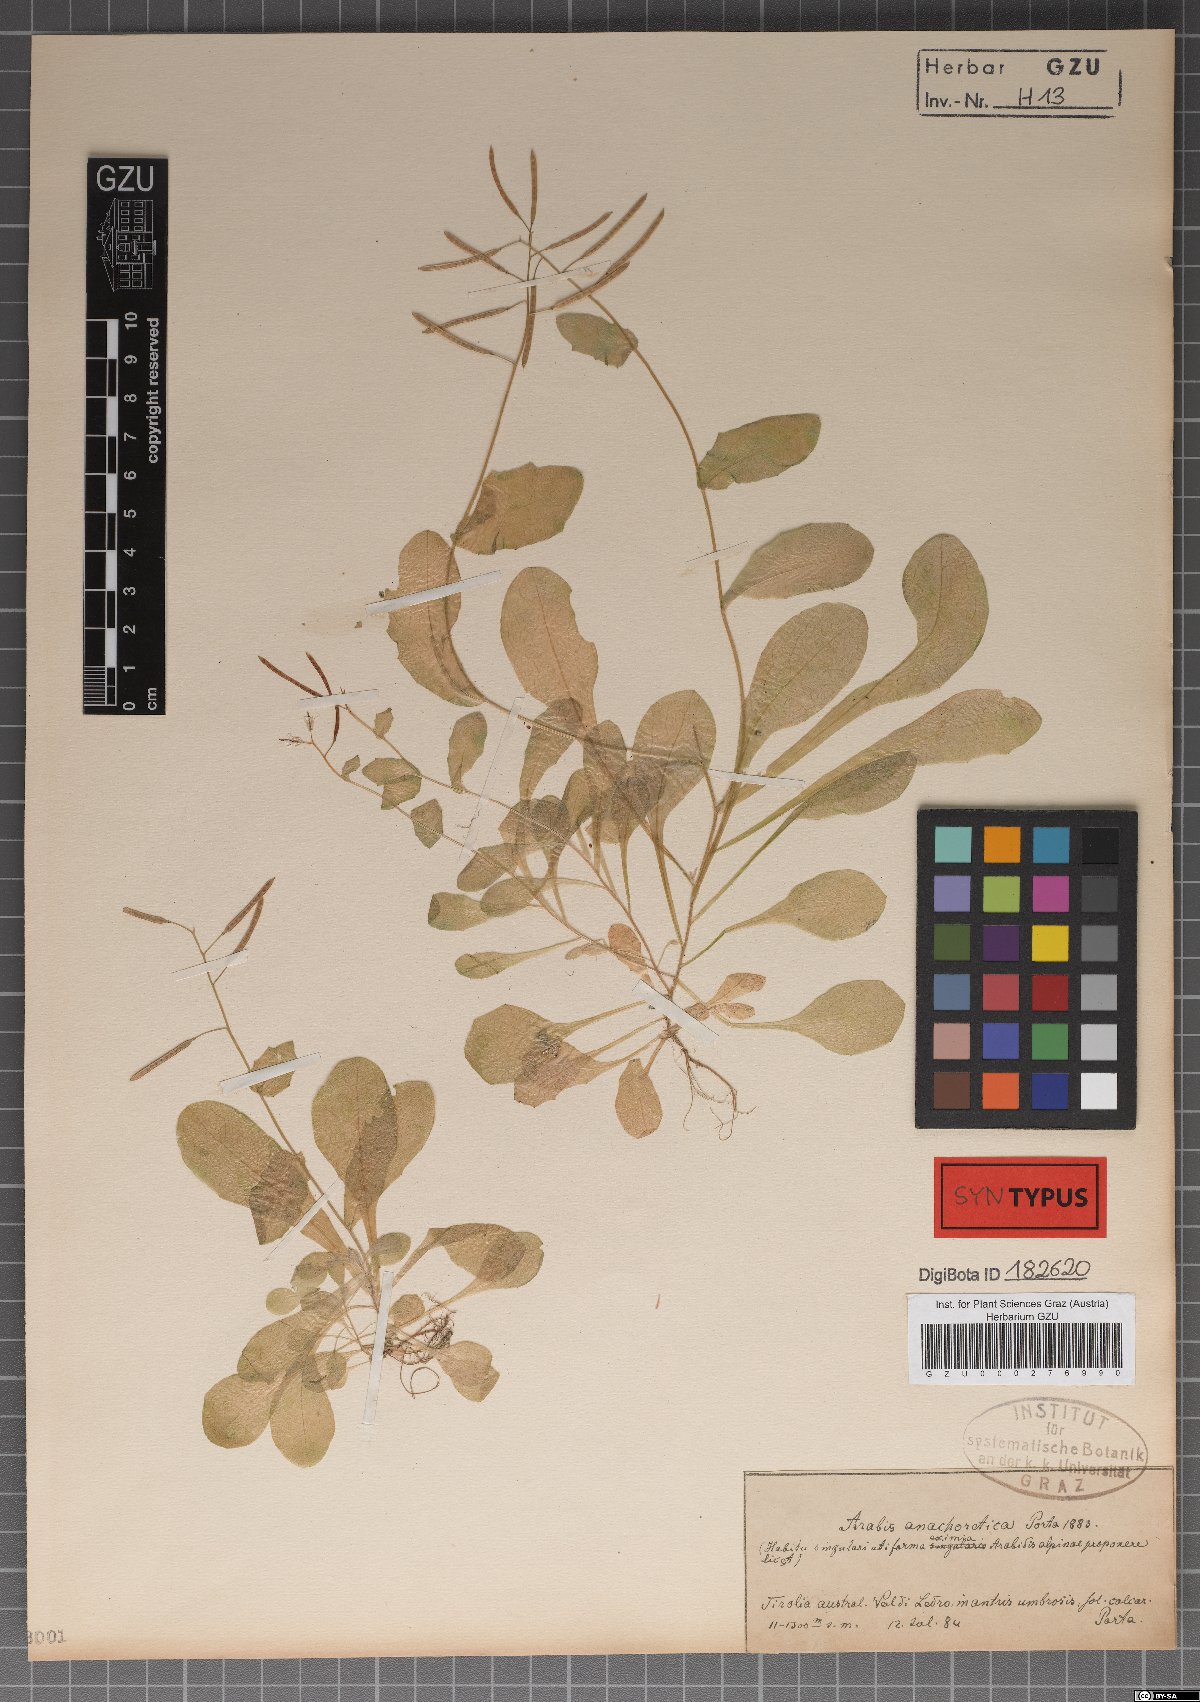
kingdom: Plantae
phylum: Tracheophyta
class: Magnoliopsida
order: Brassicales
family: Brassicaceae
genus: Arabis
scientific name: Arabis anachoretica
